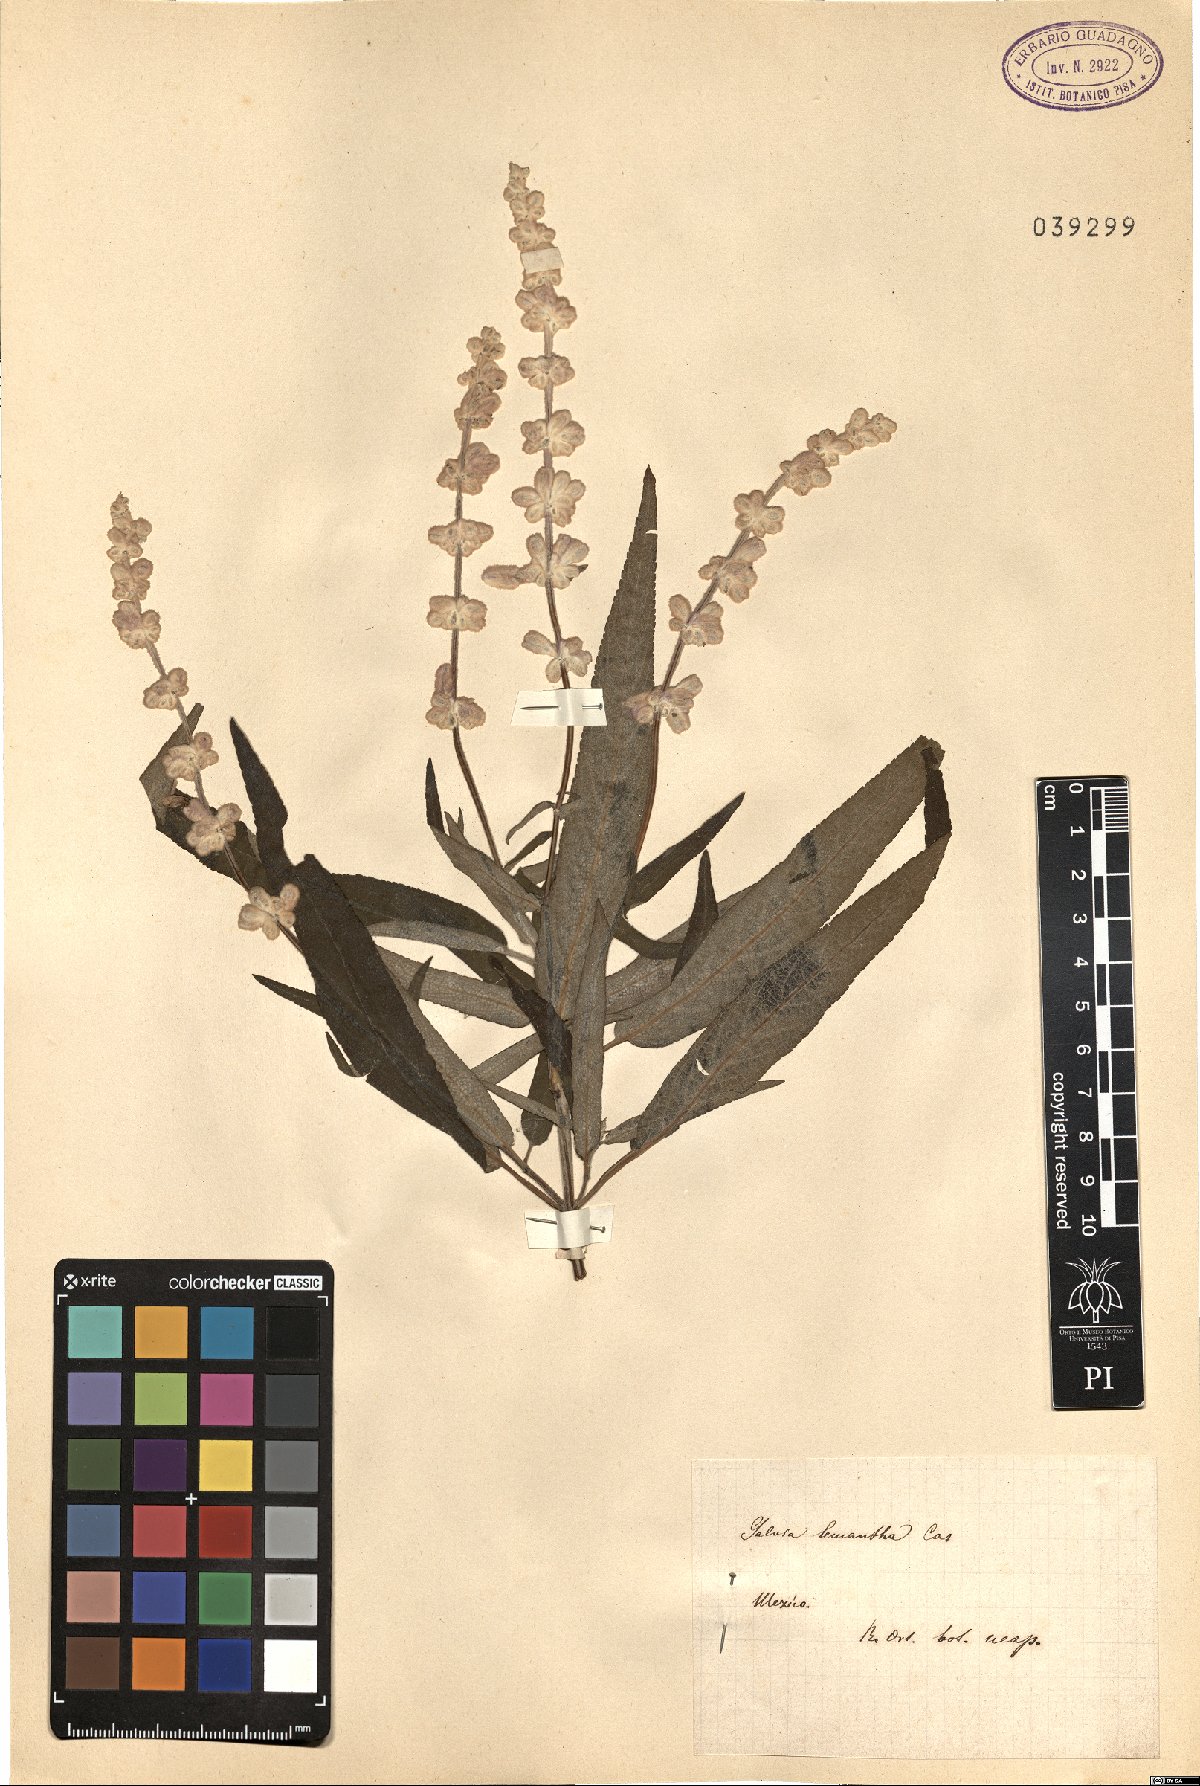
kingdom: Plantae
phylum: Tracheophyta
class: Magnoliopsida
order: Lamiales
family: Lamiaceae
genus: Salvia
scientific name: Salvia leucantha
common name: Mexican bush sage
